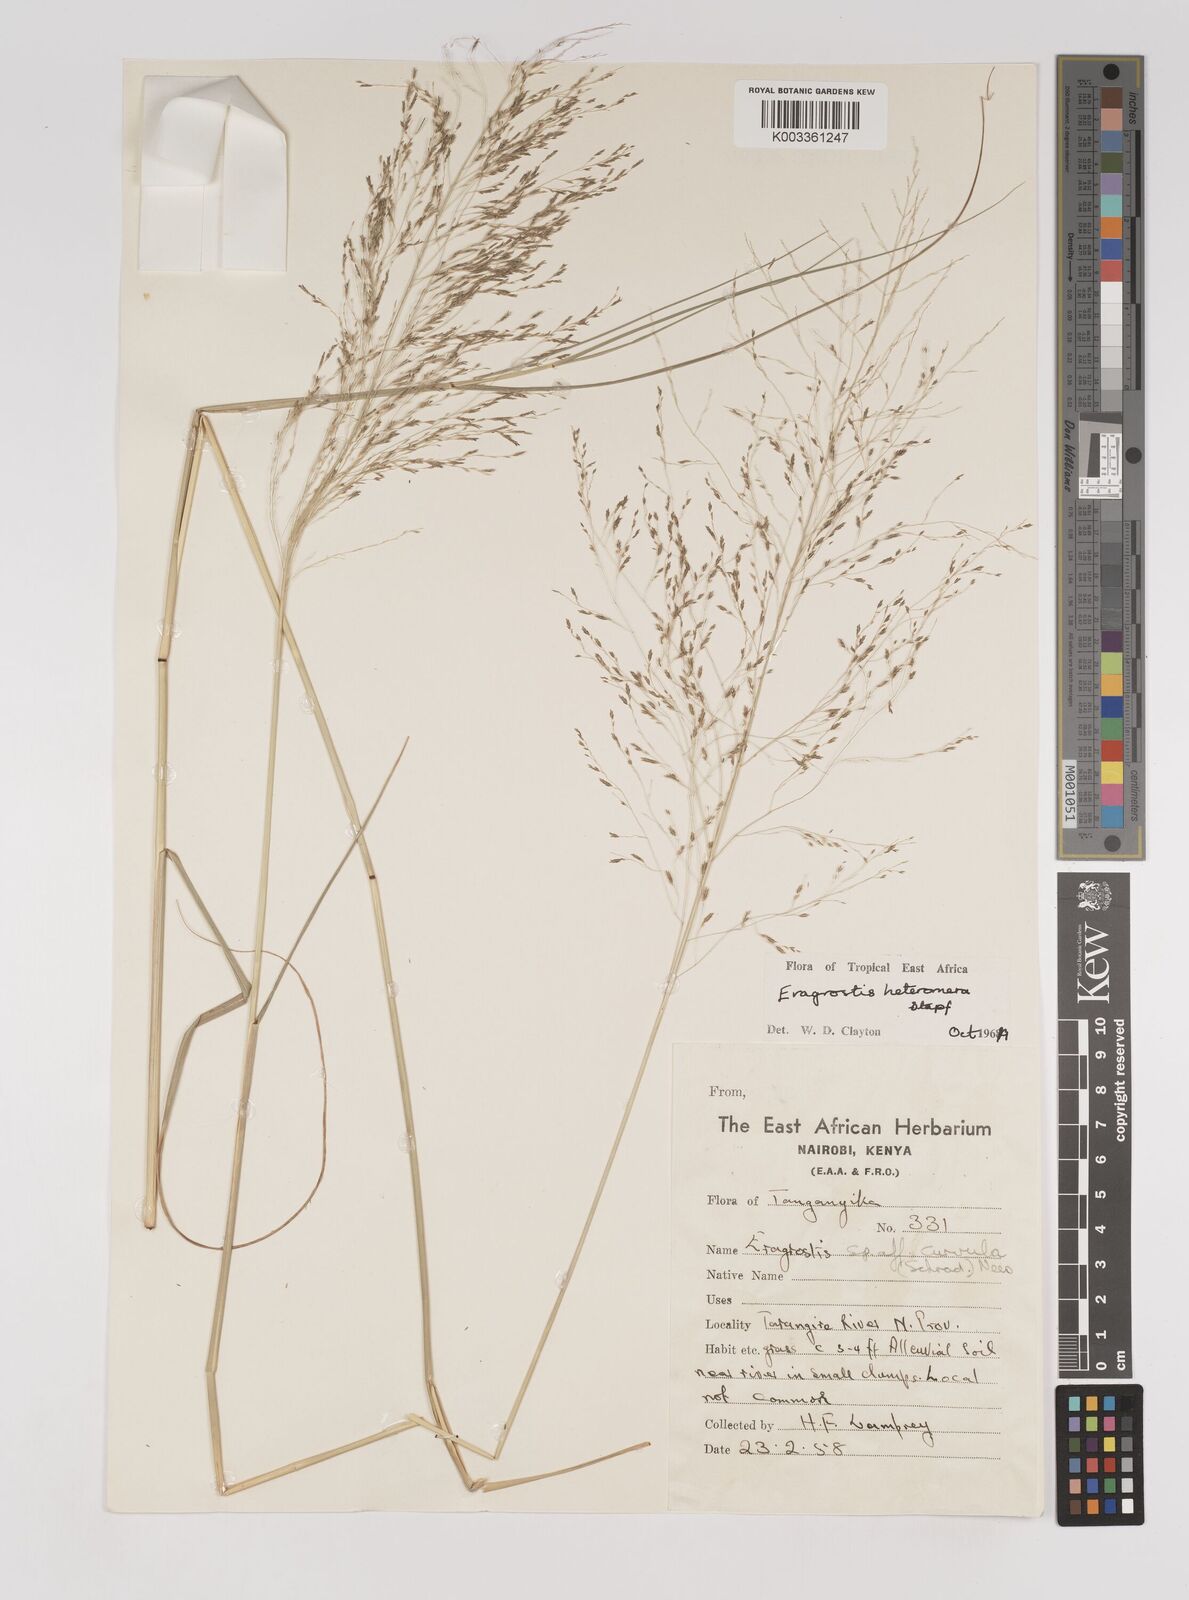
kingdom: Plantae
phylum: Tracheophyta
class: Liliopsida
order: Poales
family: Poaceae
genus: Eragrostis
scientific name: Eragrostis heteromera
